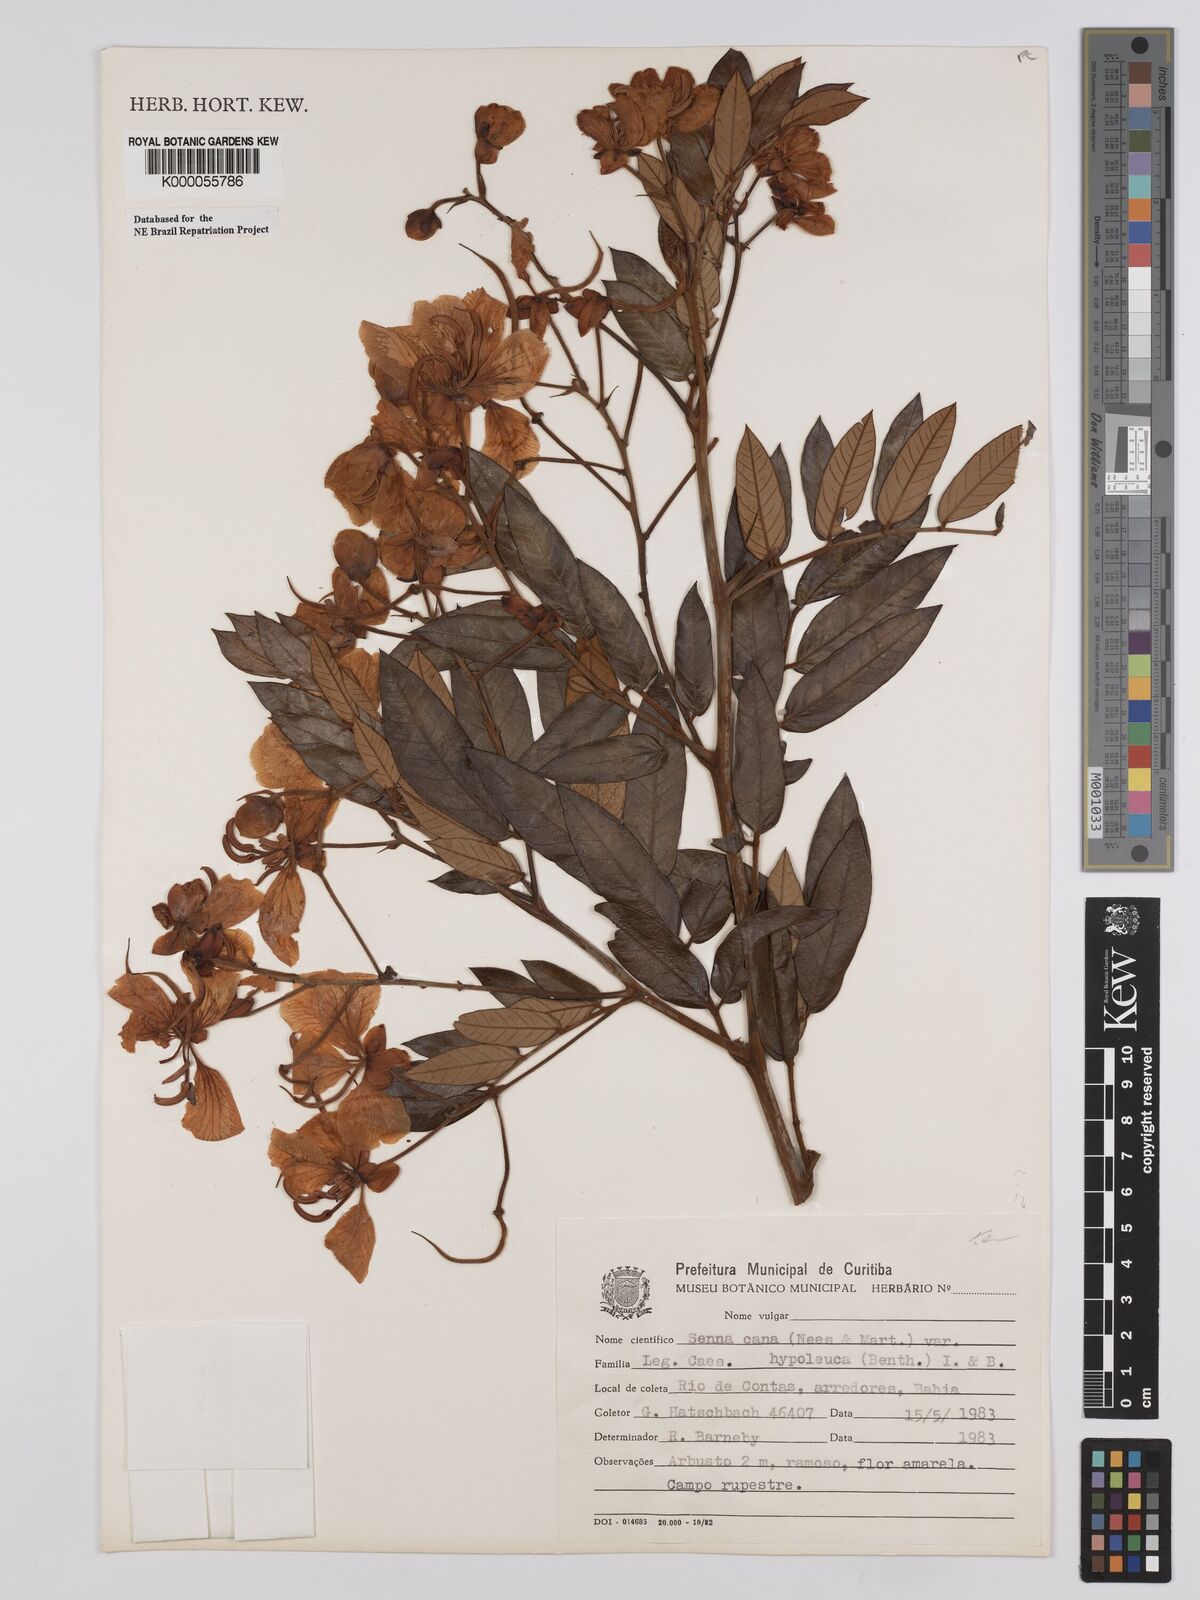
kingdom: Plantae
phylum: Tracheophyta
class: Magnoliopsida
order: Fabales
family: Fabaceae
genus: Senna
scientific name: Senna cana
